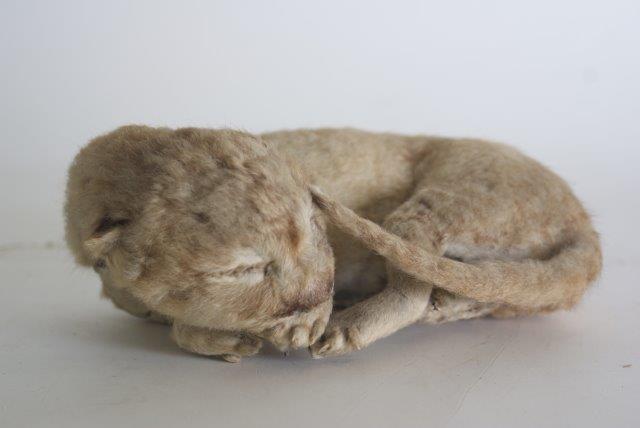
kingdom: Animalia
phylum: Chordata
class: Mammalia
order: Carnivora
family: Felidae
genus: Panthera
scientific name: Panthera leo
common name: Lion
